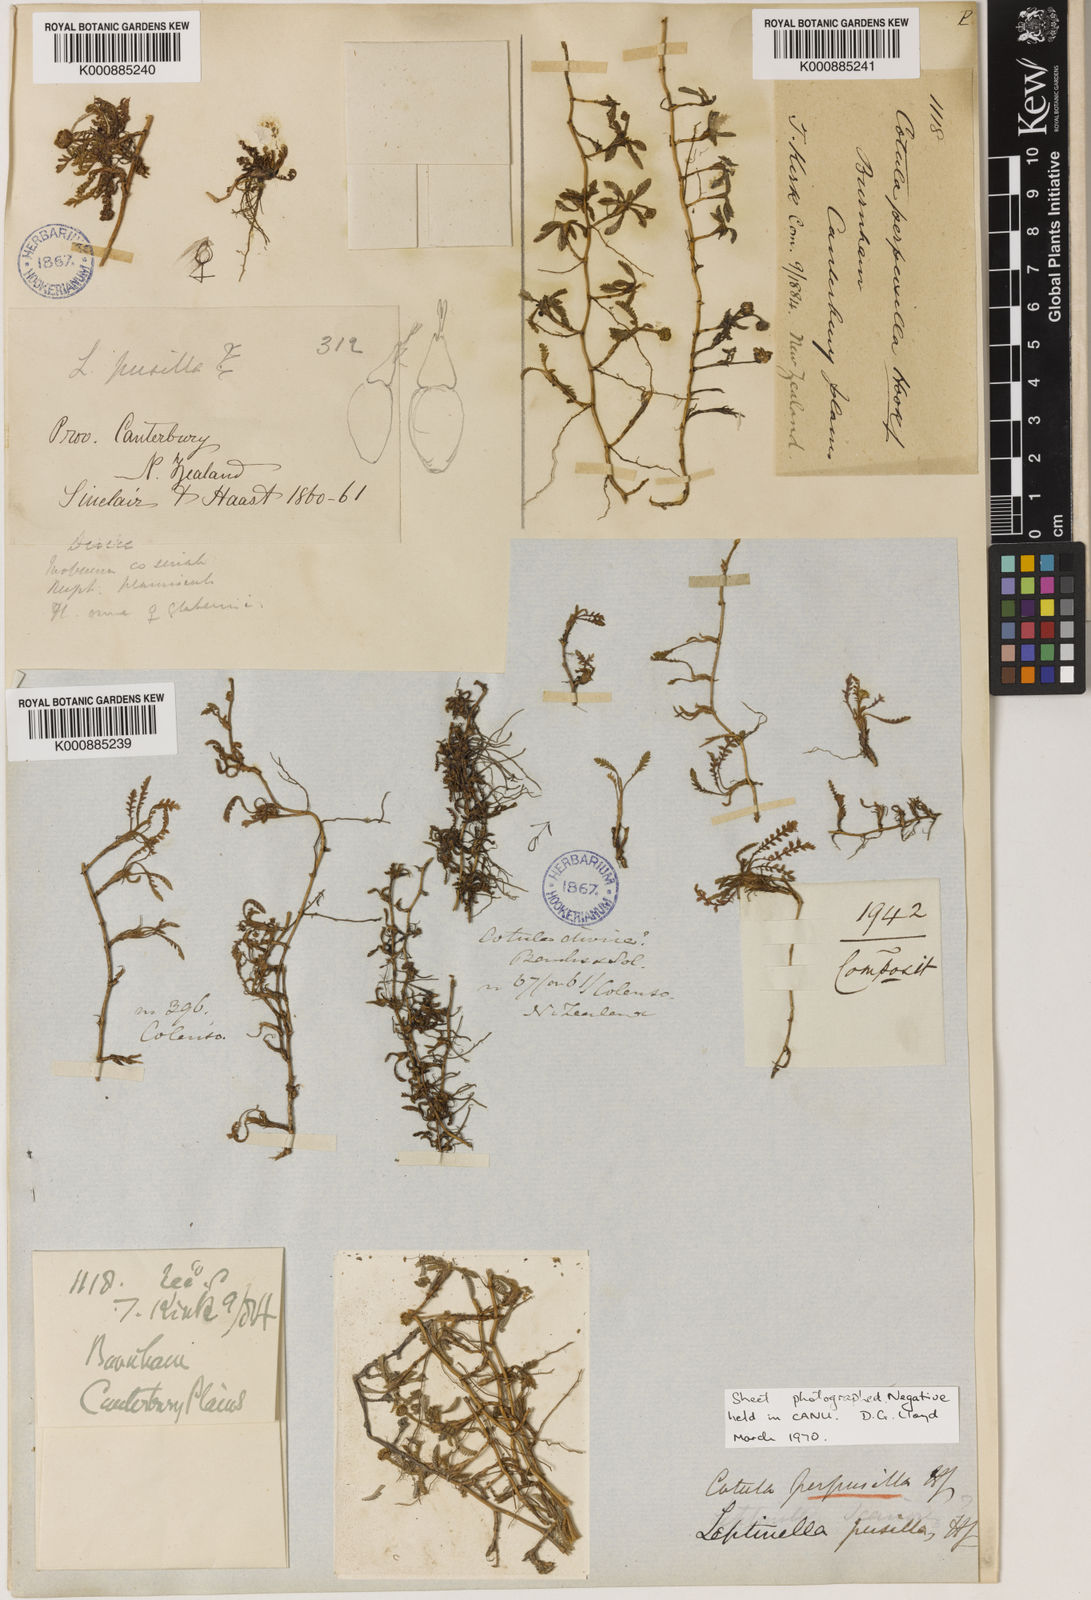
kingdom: Plantae
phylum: Tracheophyta
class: Magnoliopsida
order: Asterales
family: Asteraceae
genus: Leptinella
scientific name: Leptinella pusilla
